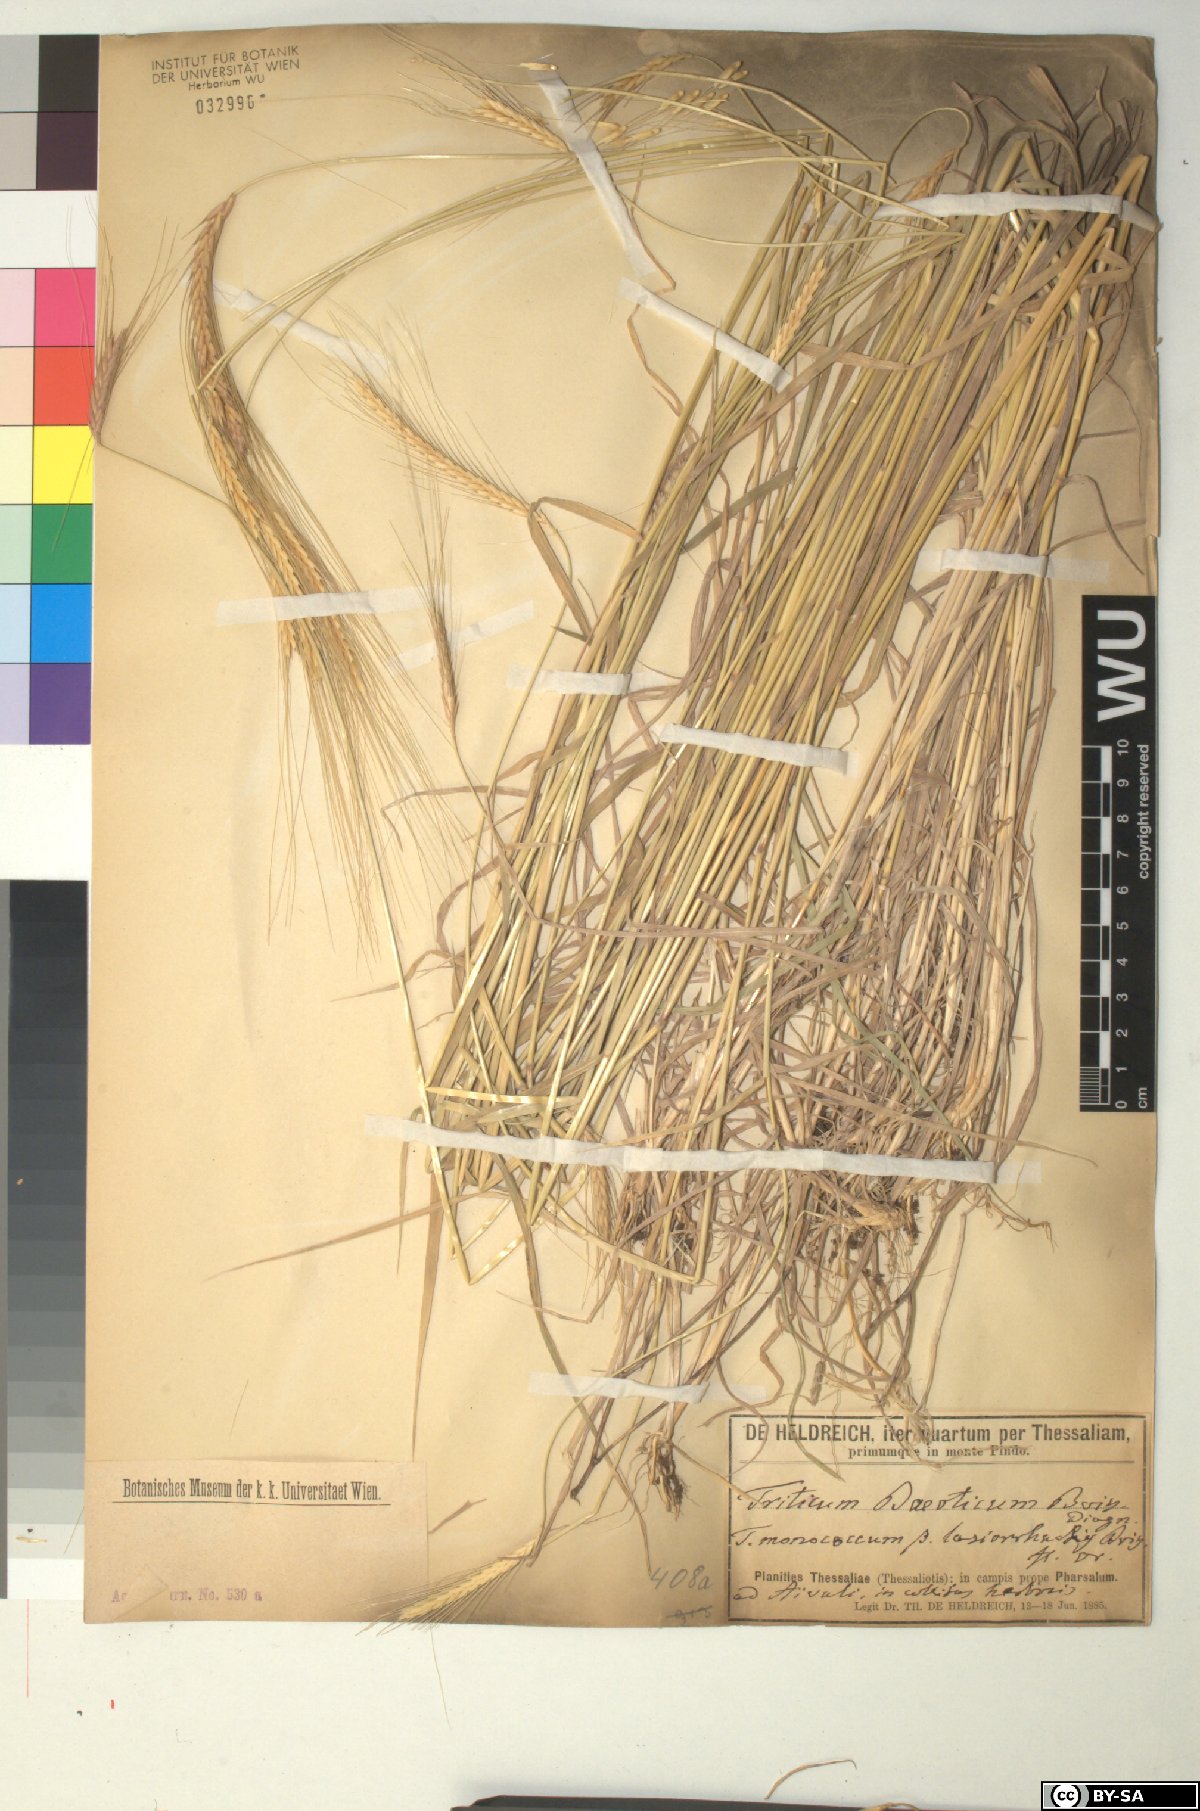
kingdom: Plantae
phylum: Tracheophyta
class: Liliopsida
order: Poales
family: Poaceae
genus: Triticum
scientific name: Triticum monococcum
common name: Einkorn
